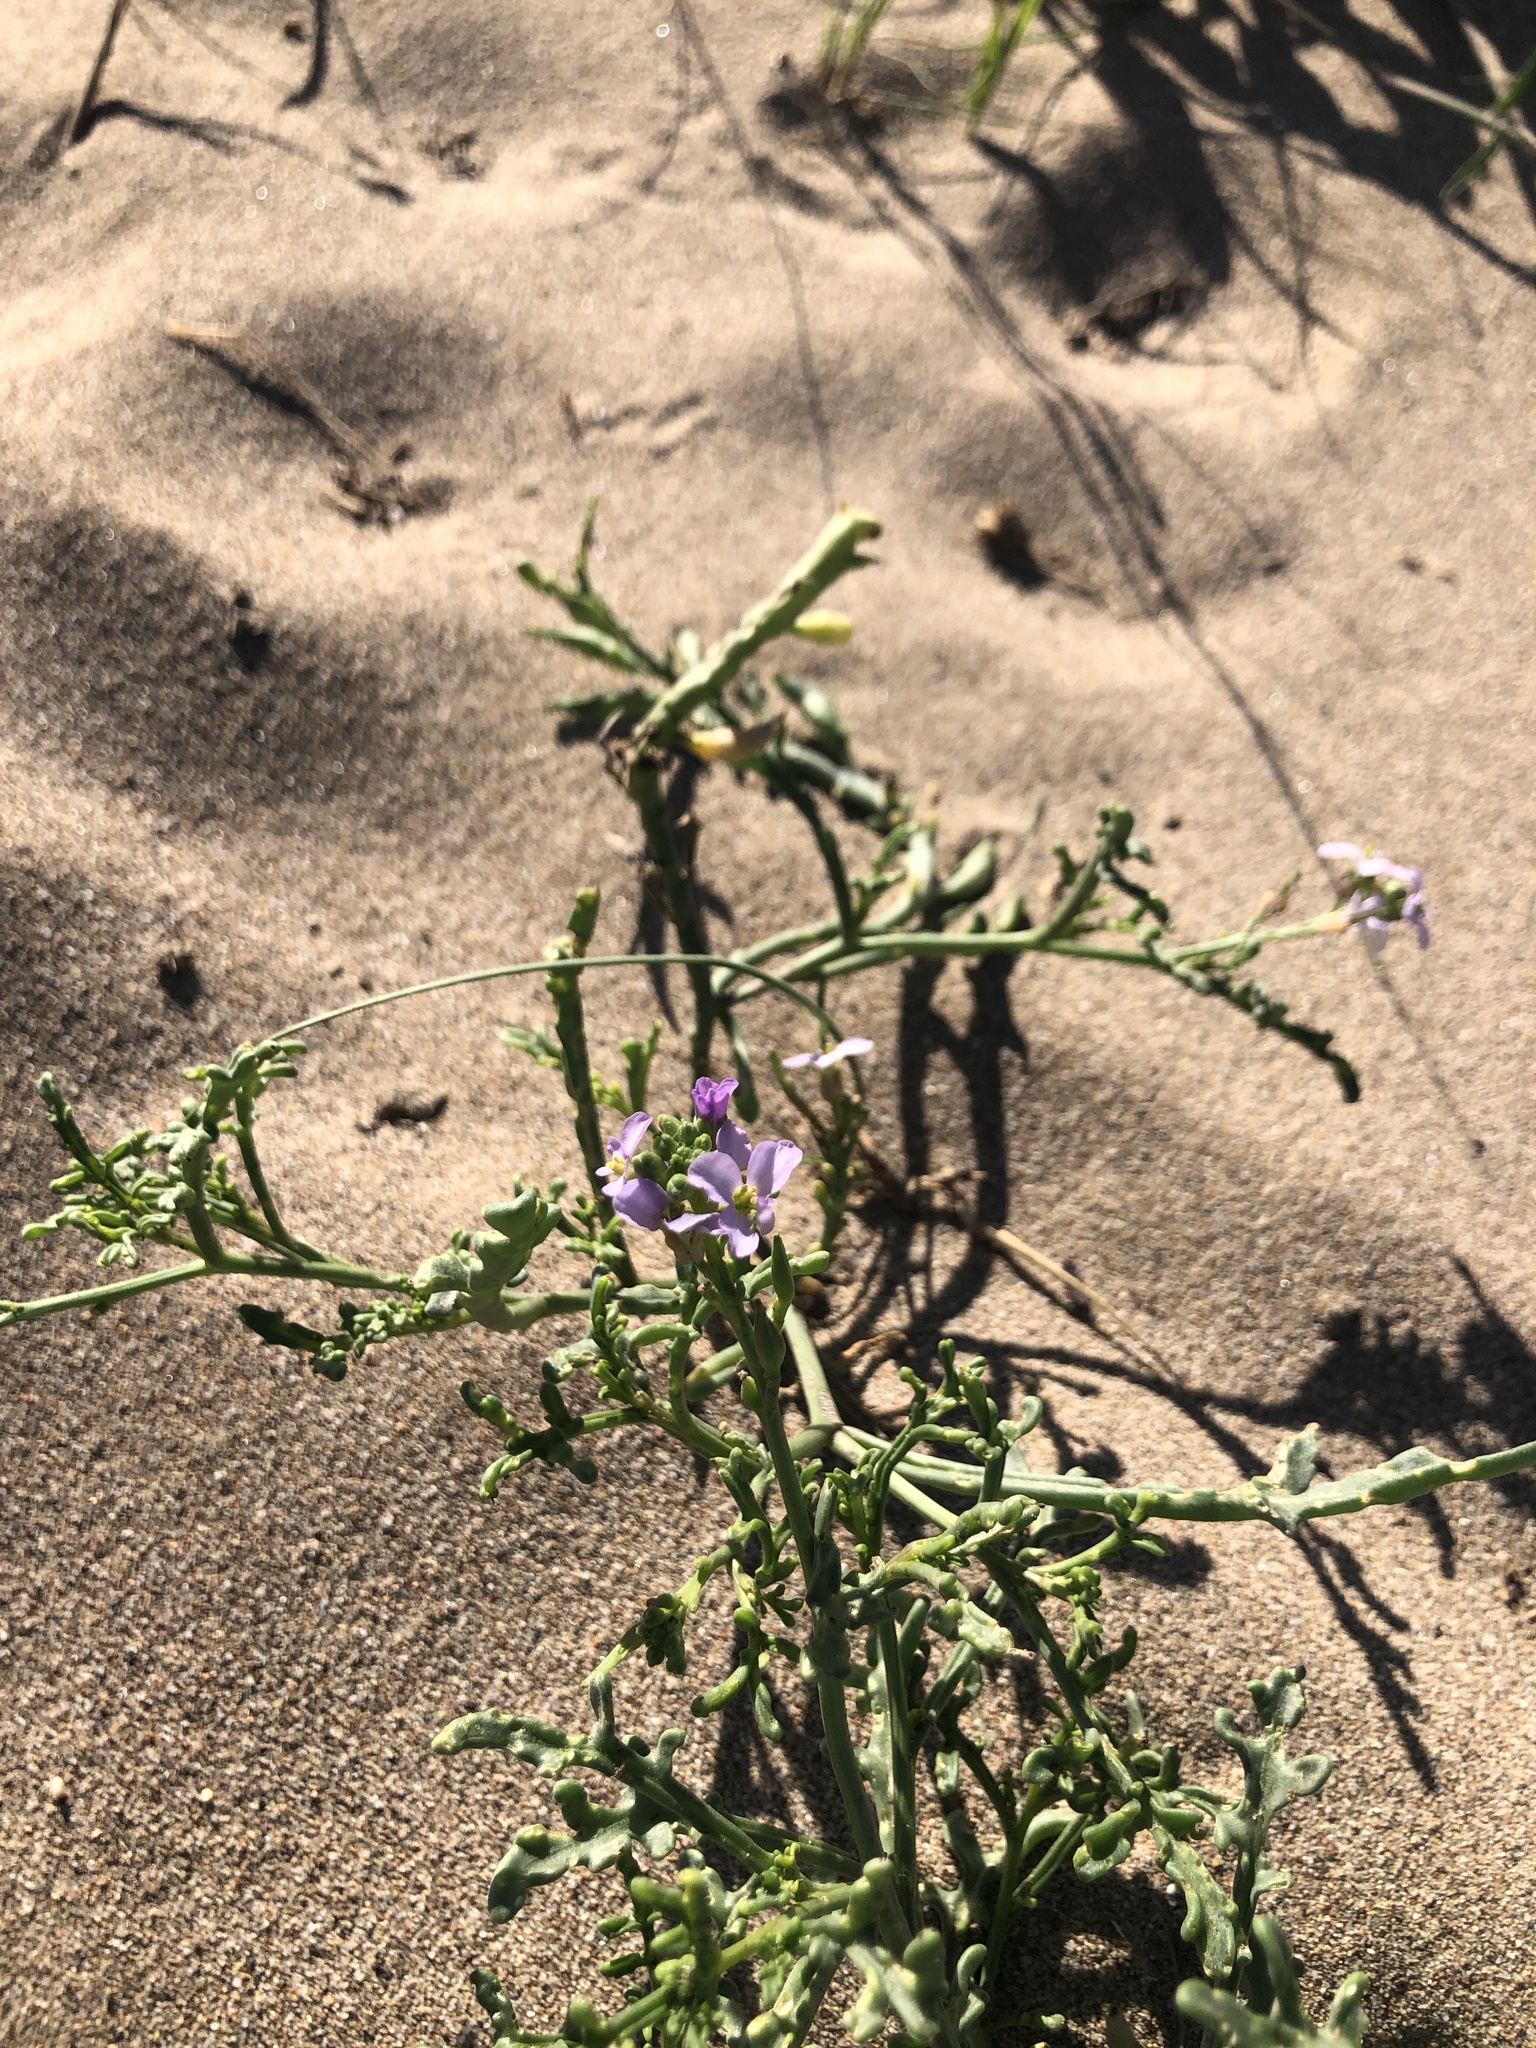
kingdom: Plantae
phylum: Tracheophyta
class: Magnoliopsida
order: Brassicales
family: Brassicaceae
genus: Cakile
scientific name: Cakile maritima
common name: Sea rocket
